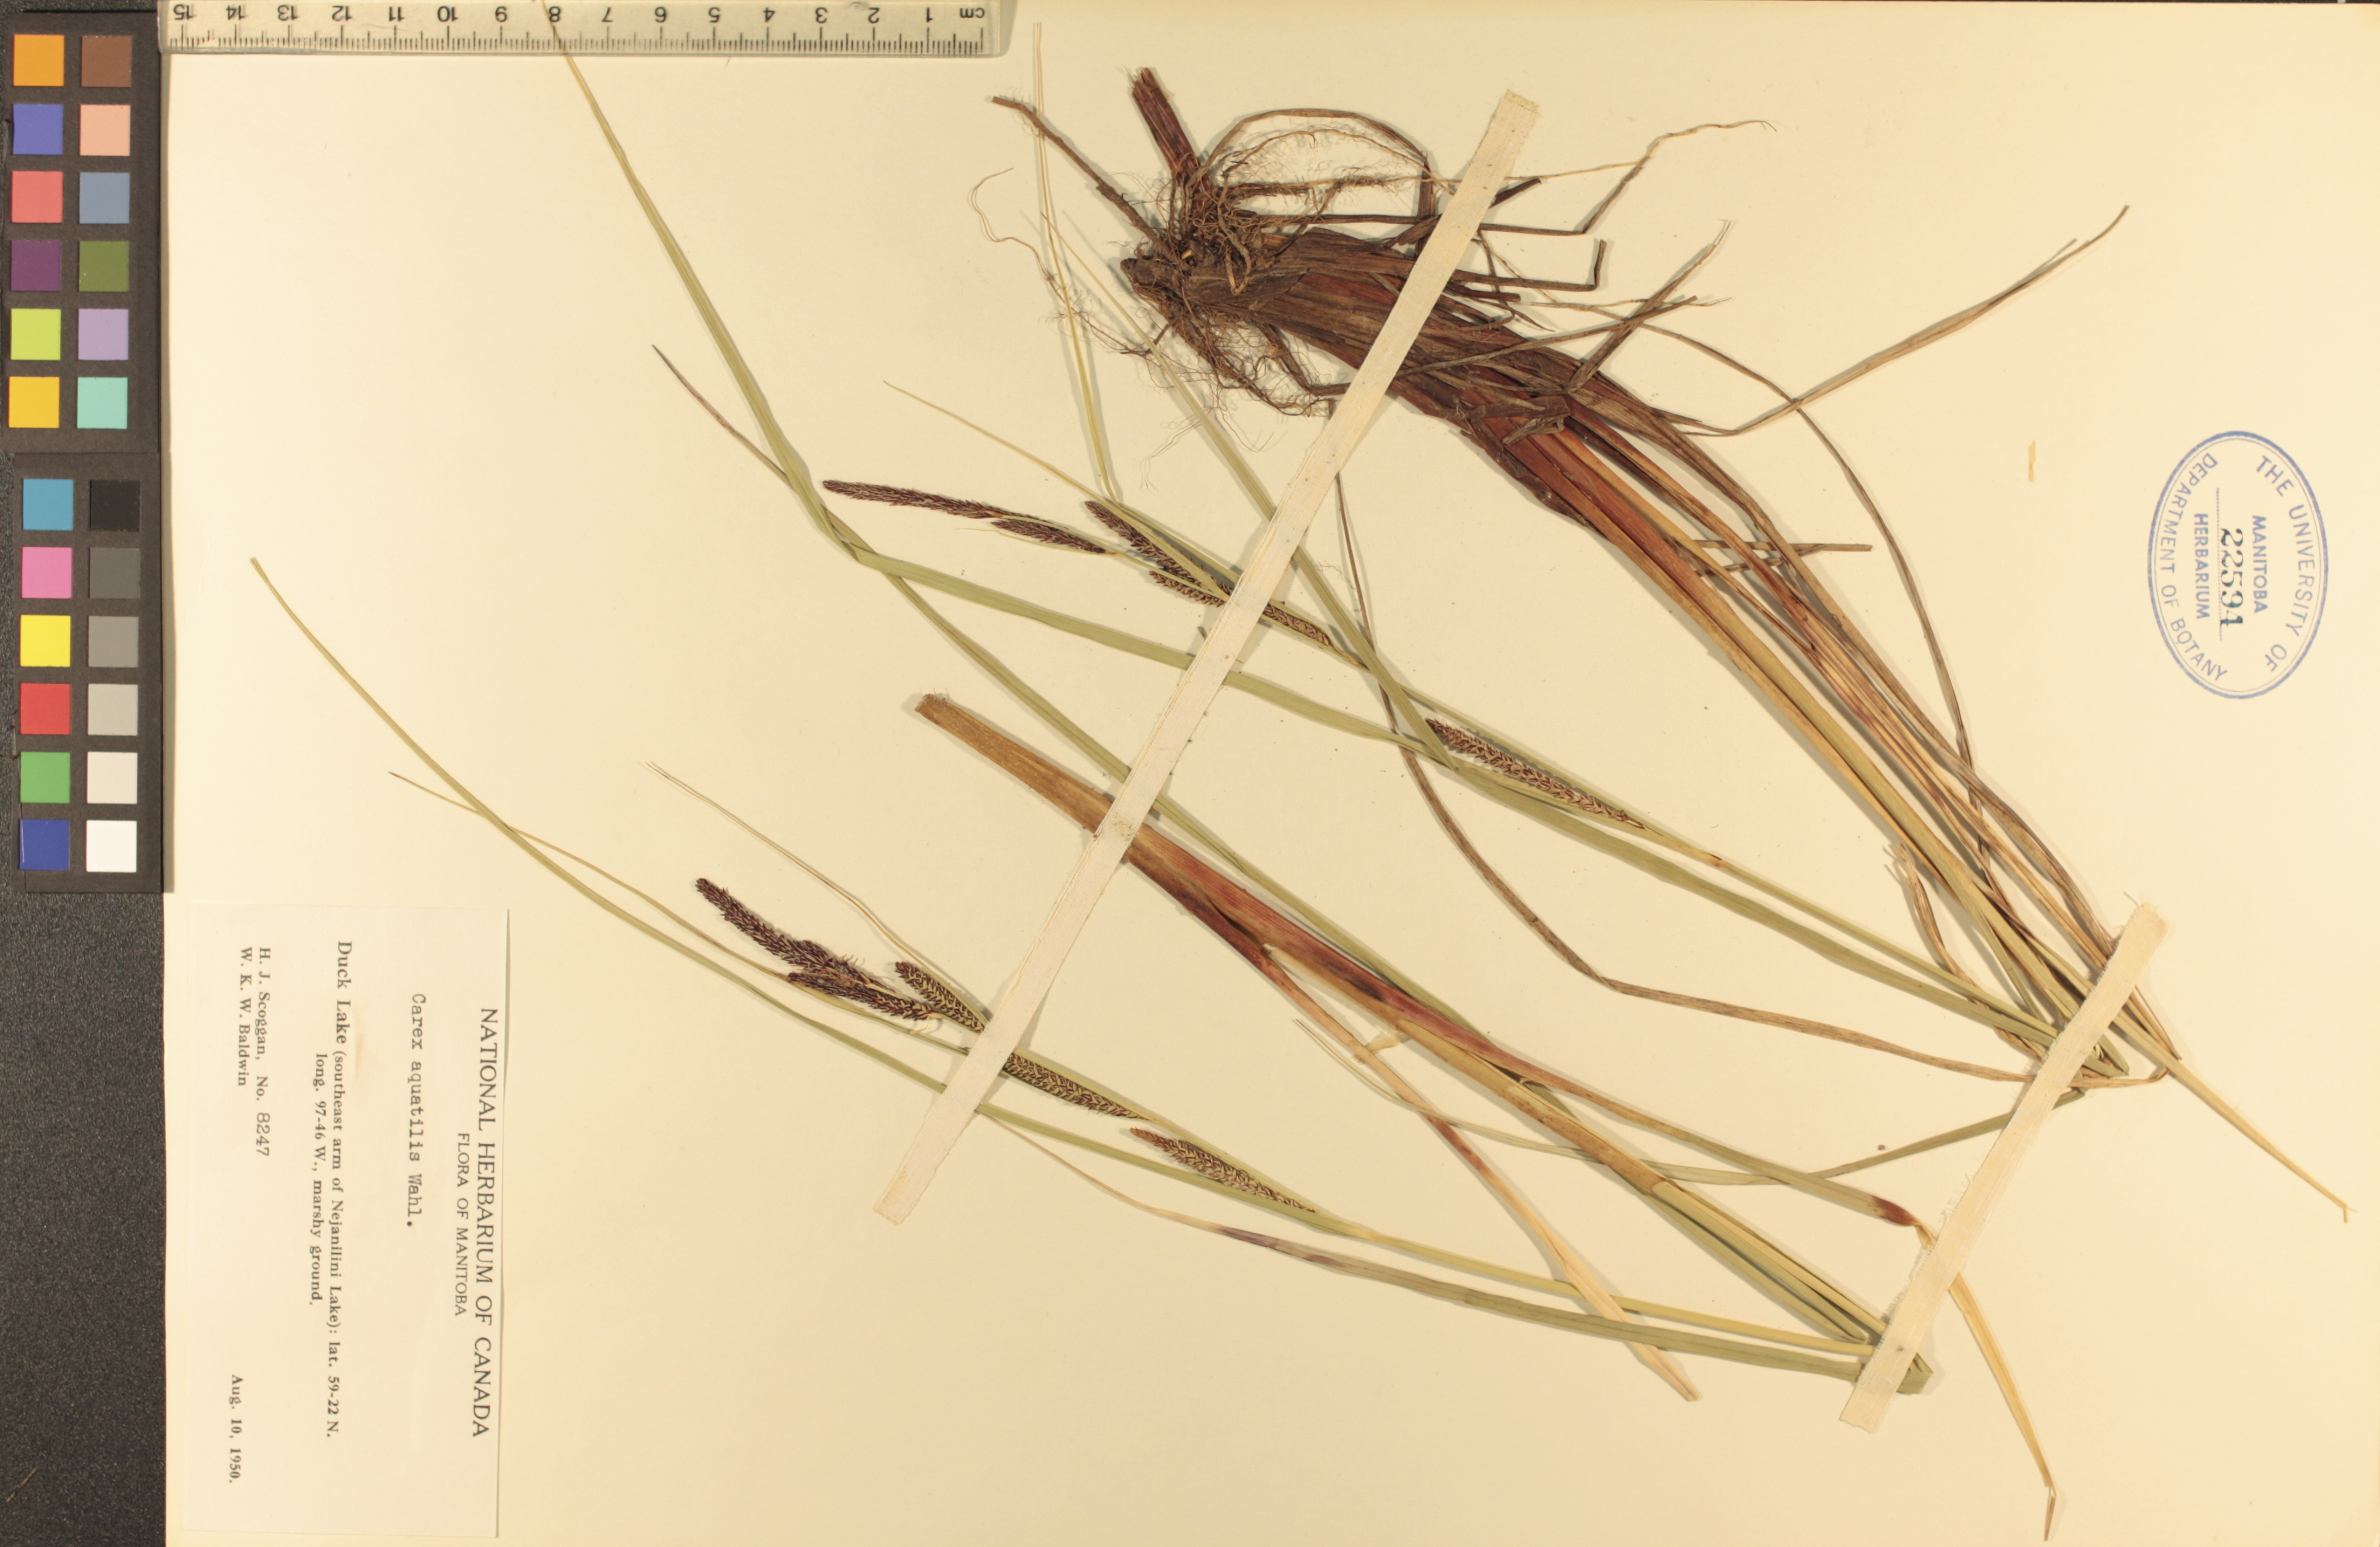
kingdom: Plantae
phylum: Tracheophyta
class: Liliopsida
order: Poales
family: Cyperaceae
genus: Carex
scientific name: Carex aquatilis
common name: Water sedge
